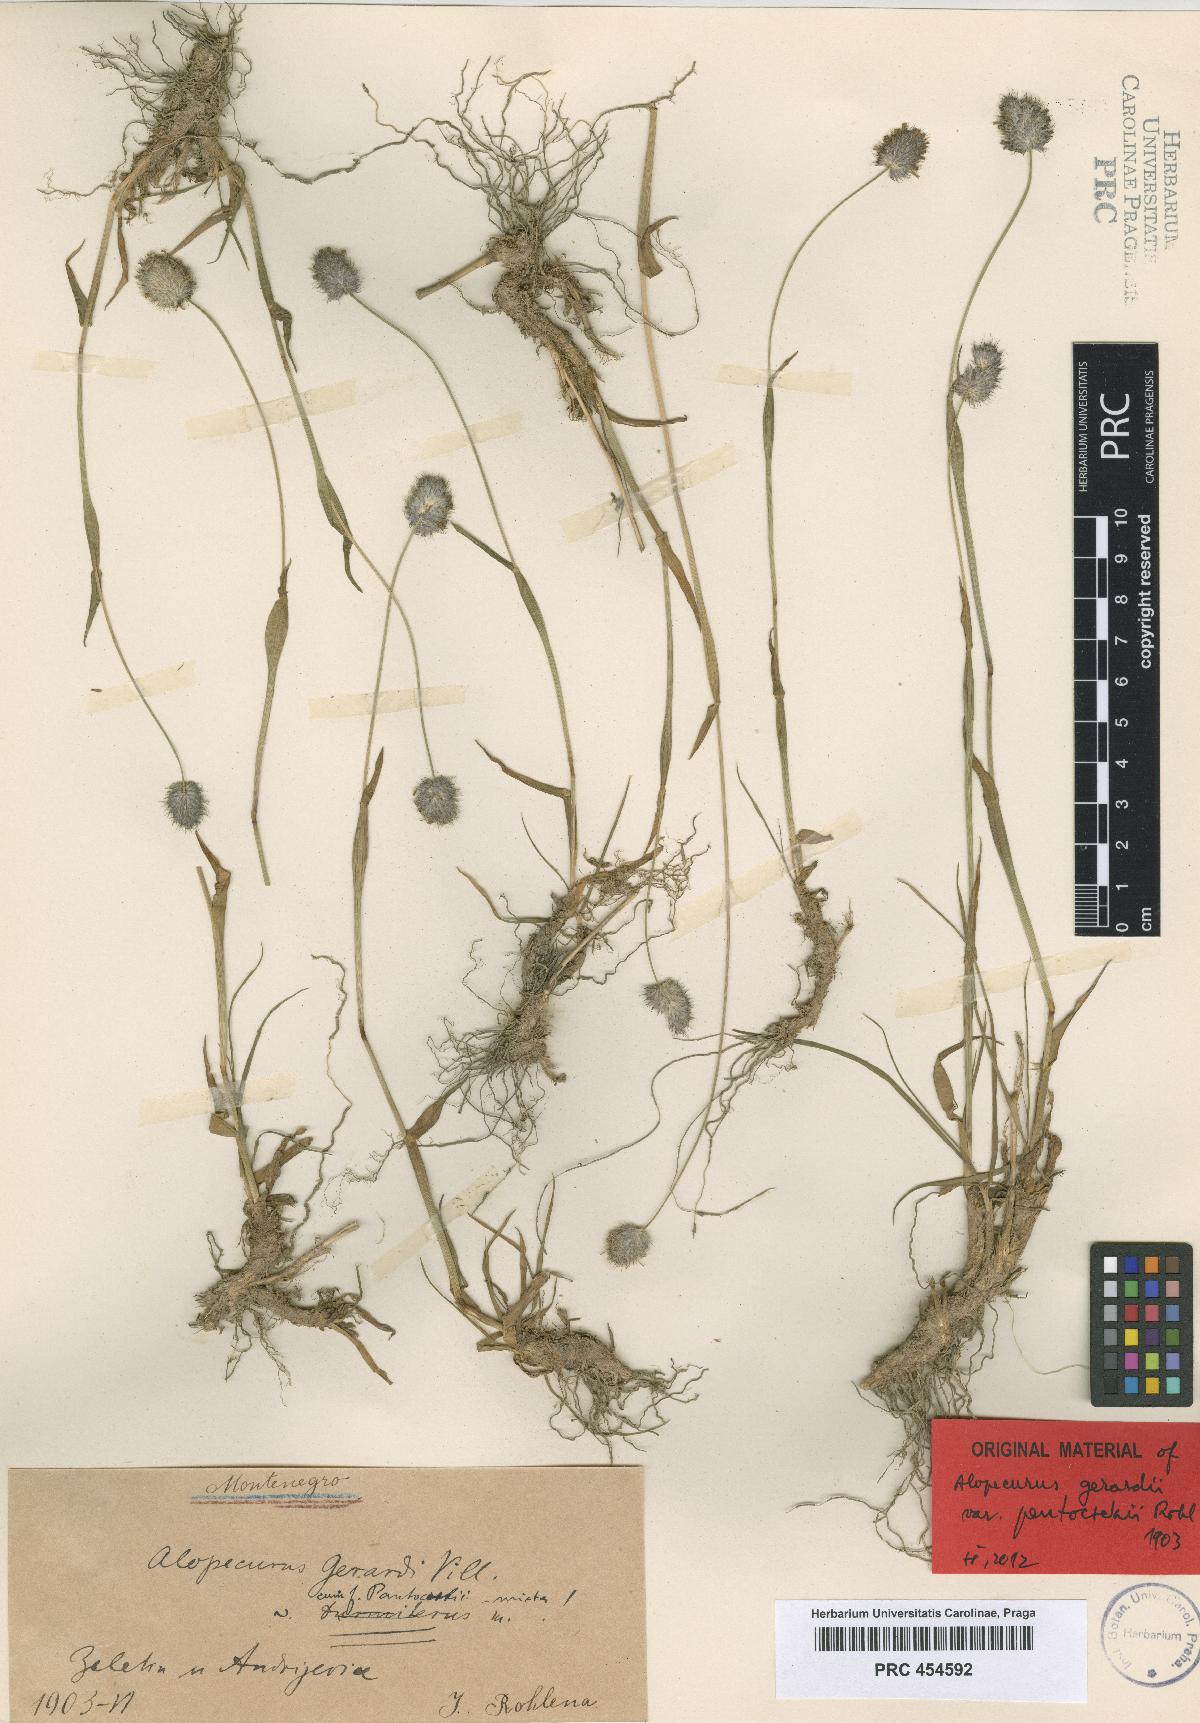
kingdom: Plantae
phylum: Tracheophyta
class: Liliopsida
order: Poales
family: Poaceae
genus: Alopecurus
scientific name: Alopecurus gerardii
